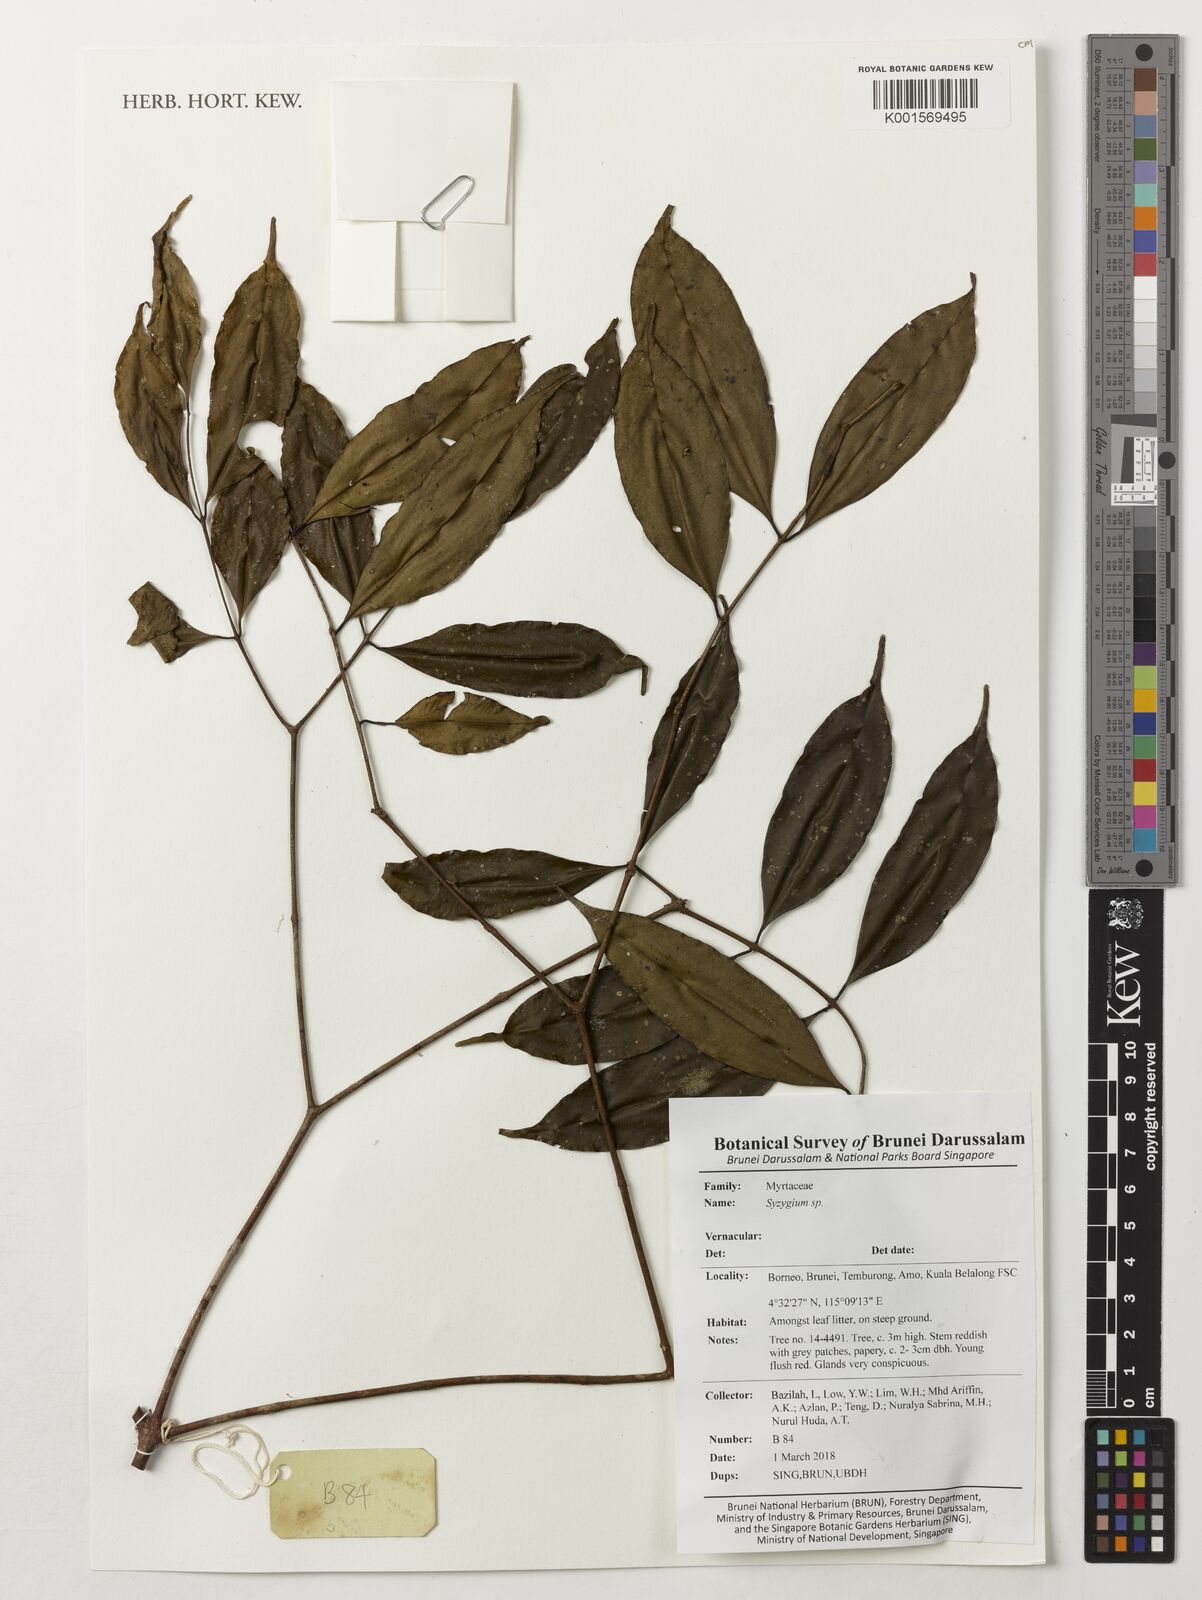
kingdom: Plantae
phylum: Tracheophyta
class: Magnoliopsida
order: Myrtales
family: Myrtaceae
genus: Syzygium
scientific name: Syzygium
